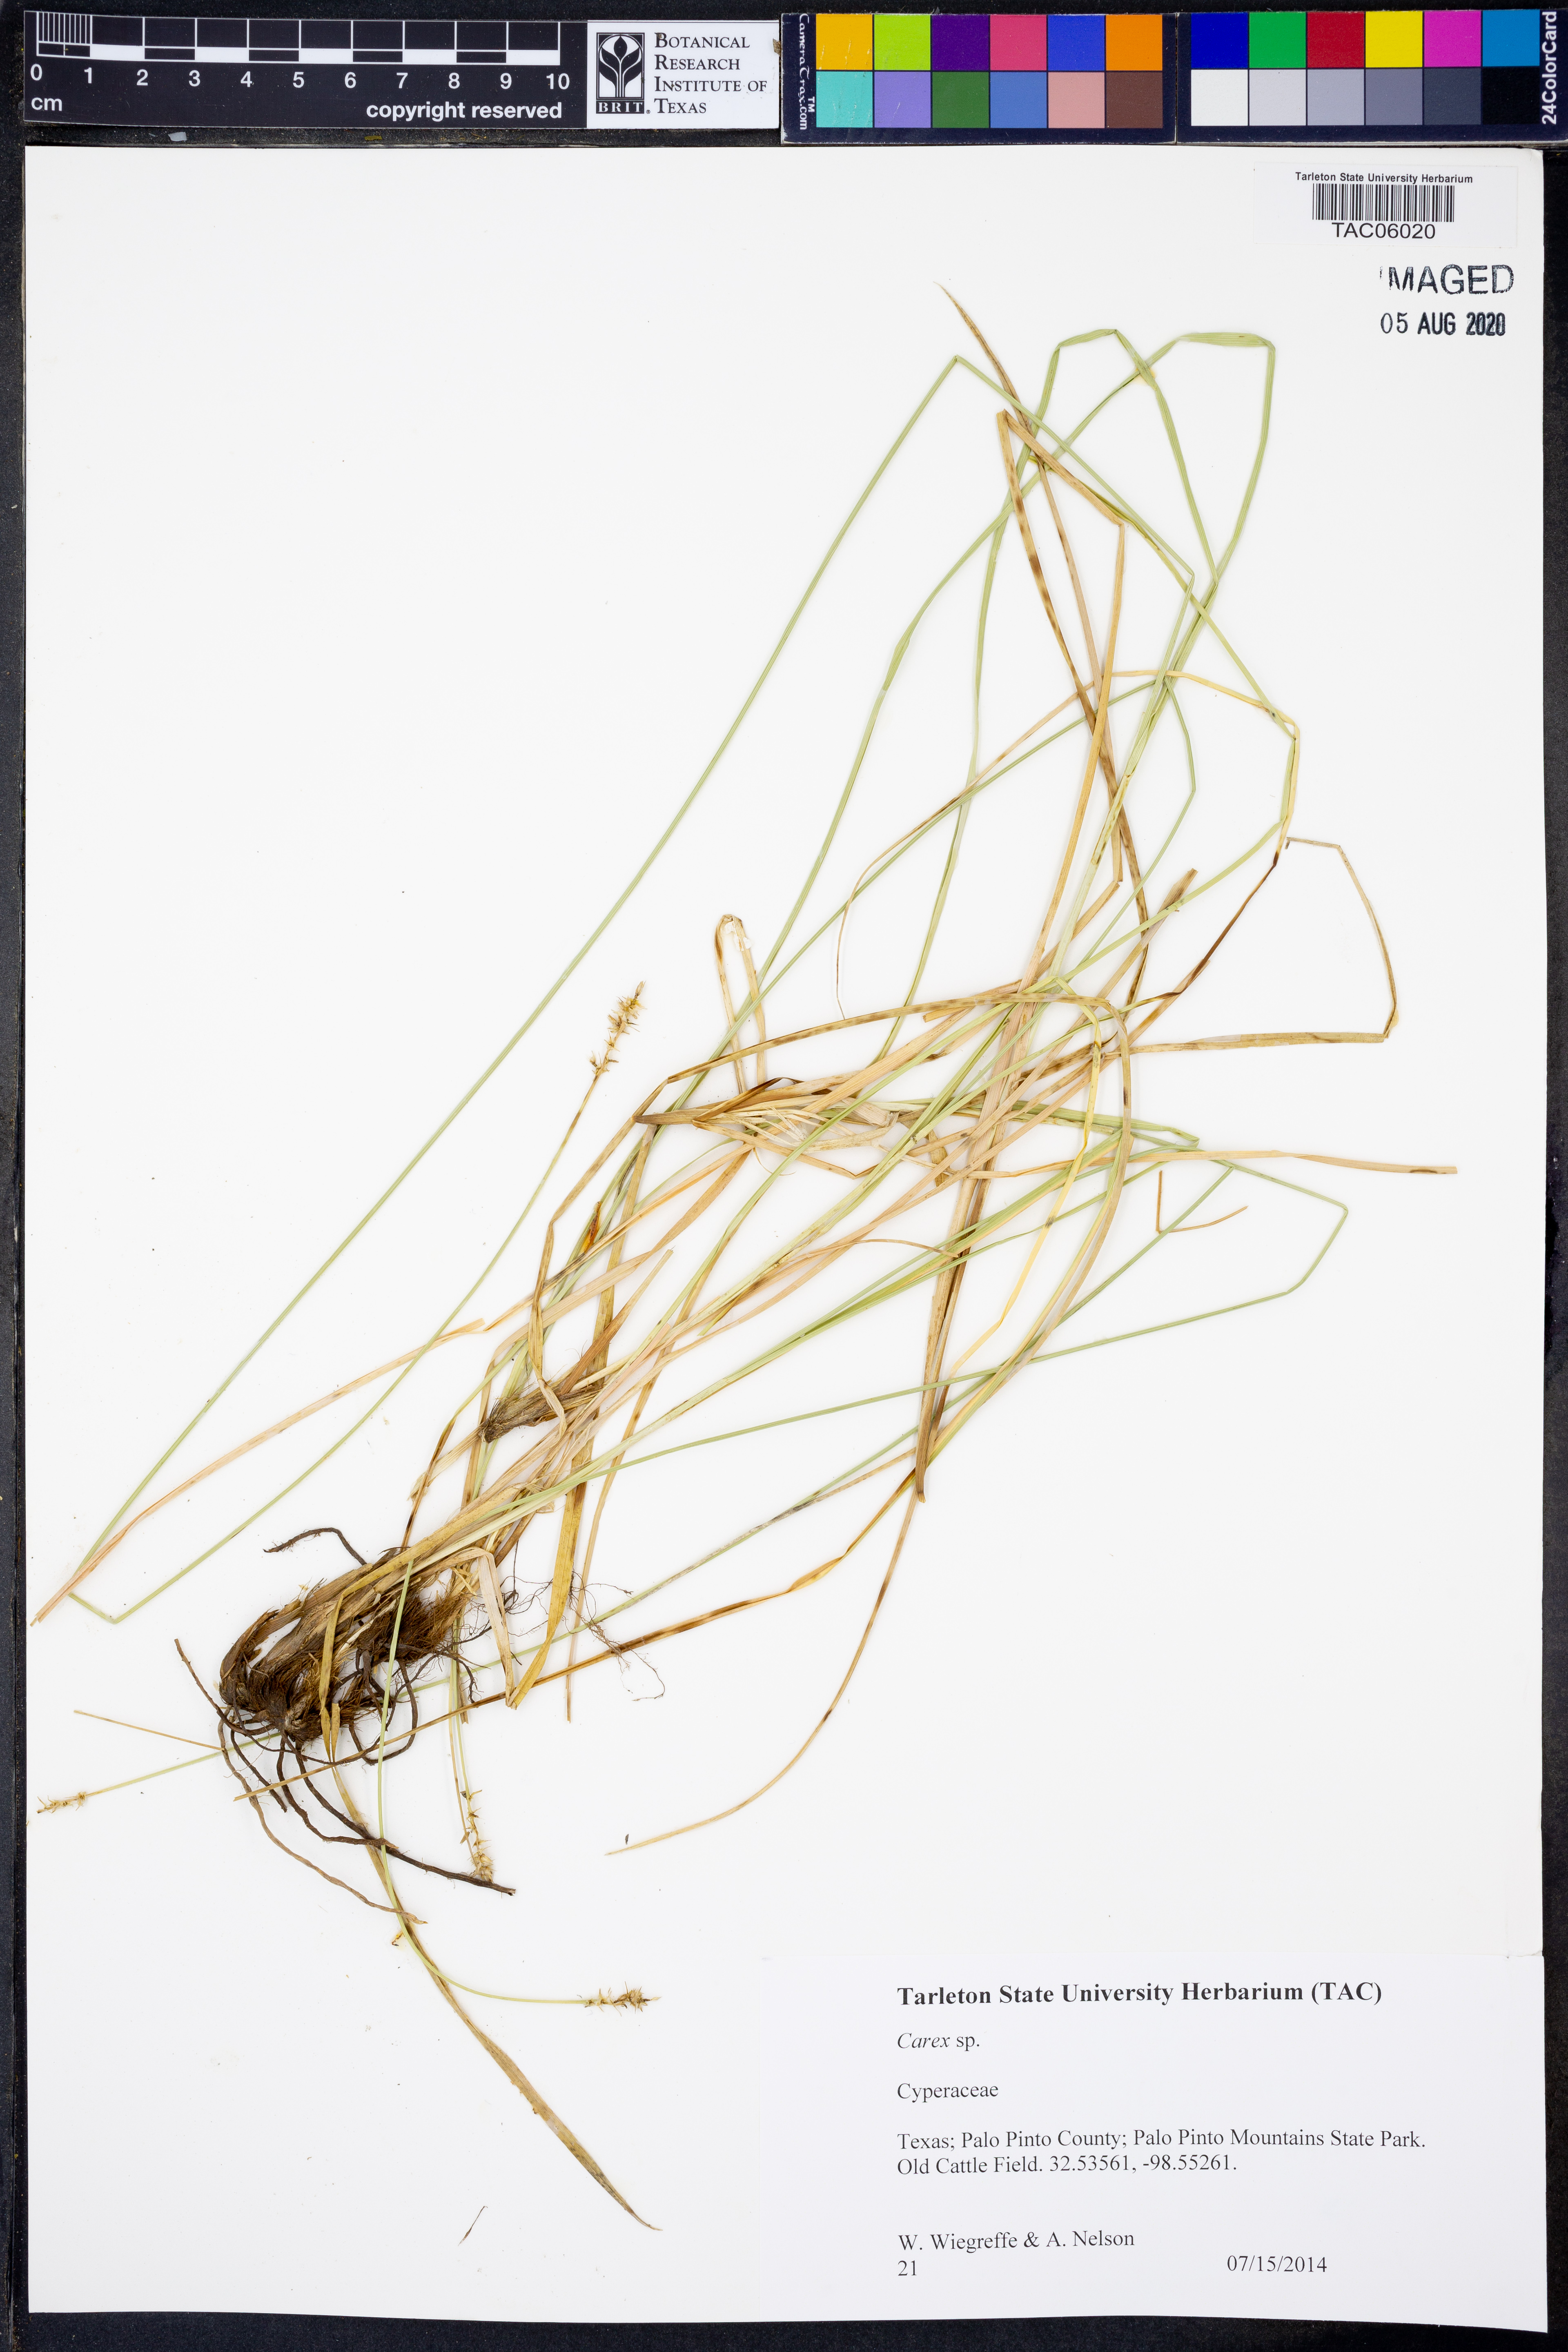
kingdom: Plantae
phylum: Tracheophyta
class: Liliopsida
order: Poales
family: Cyperaceae
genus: Carex
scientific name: Carex
